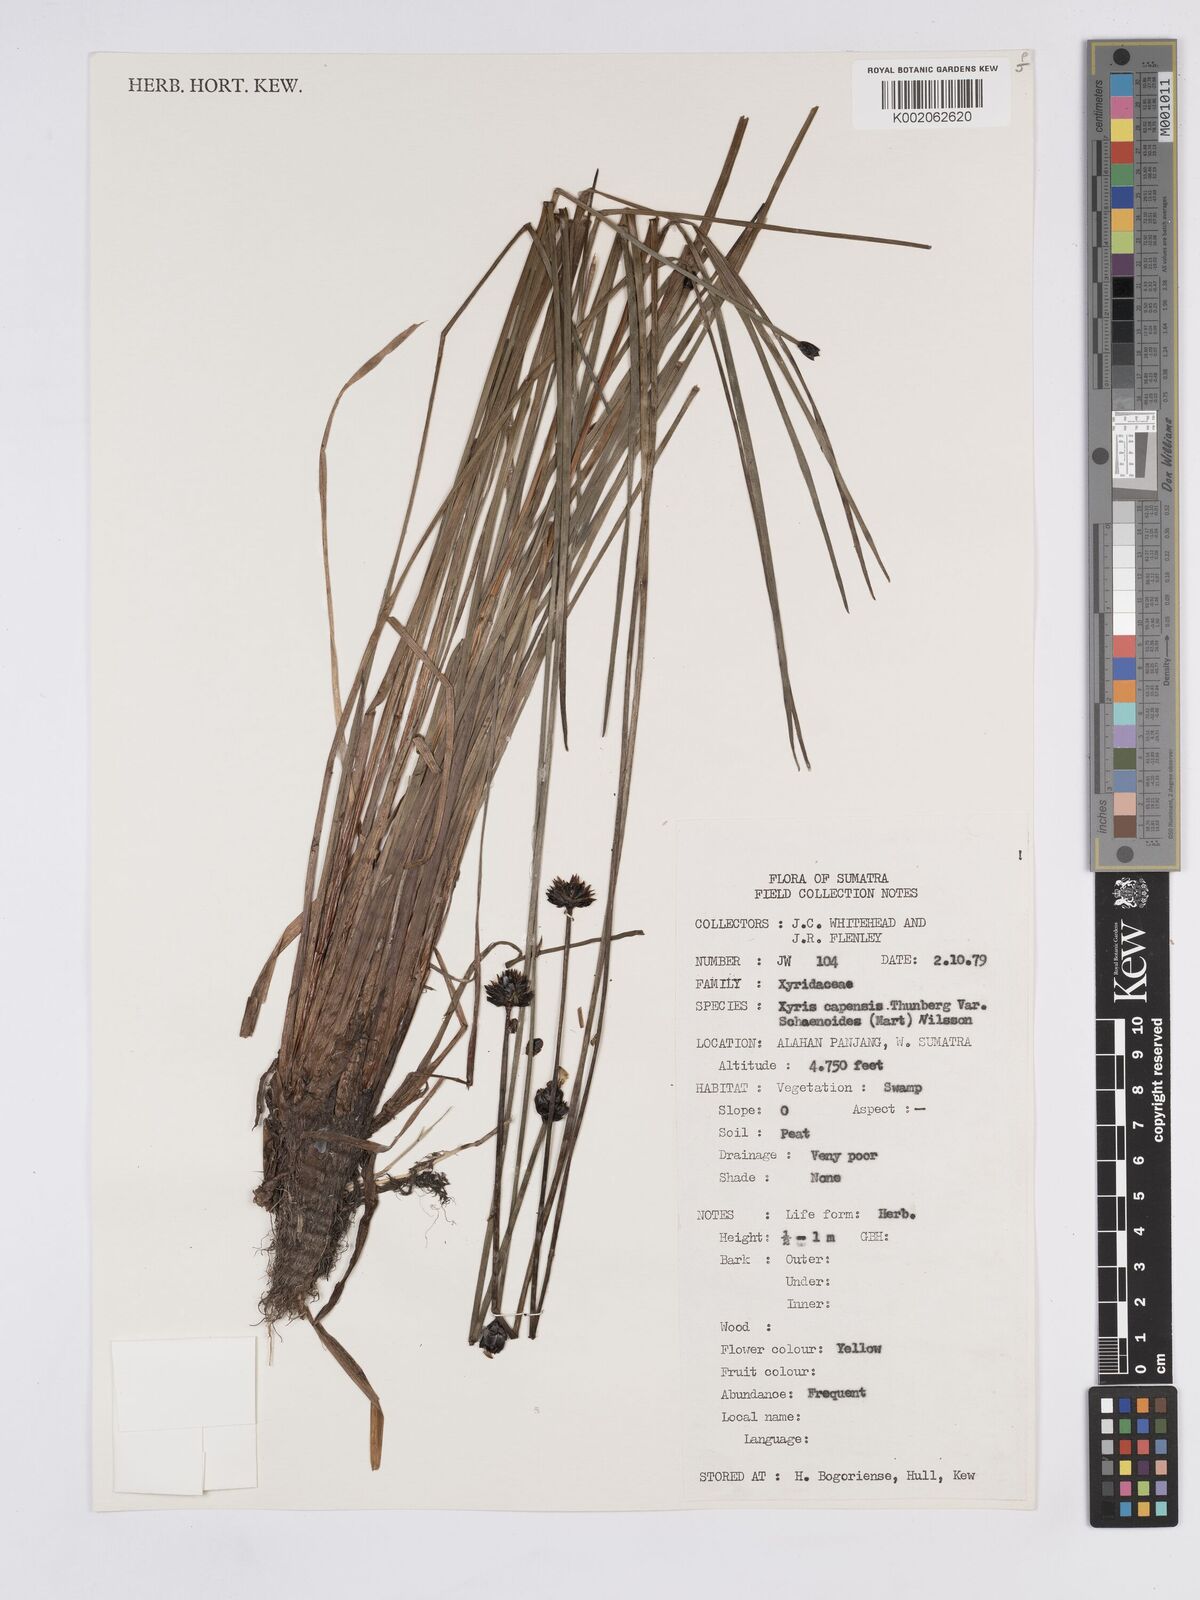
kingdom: Plantae
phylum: Tracheophyta
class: Liliopsida
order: Poales
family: Xyridaceae
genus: Xyris
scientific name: Xyris capensis
